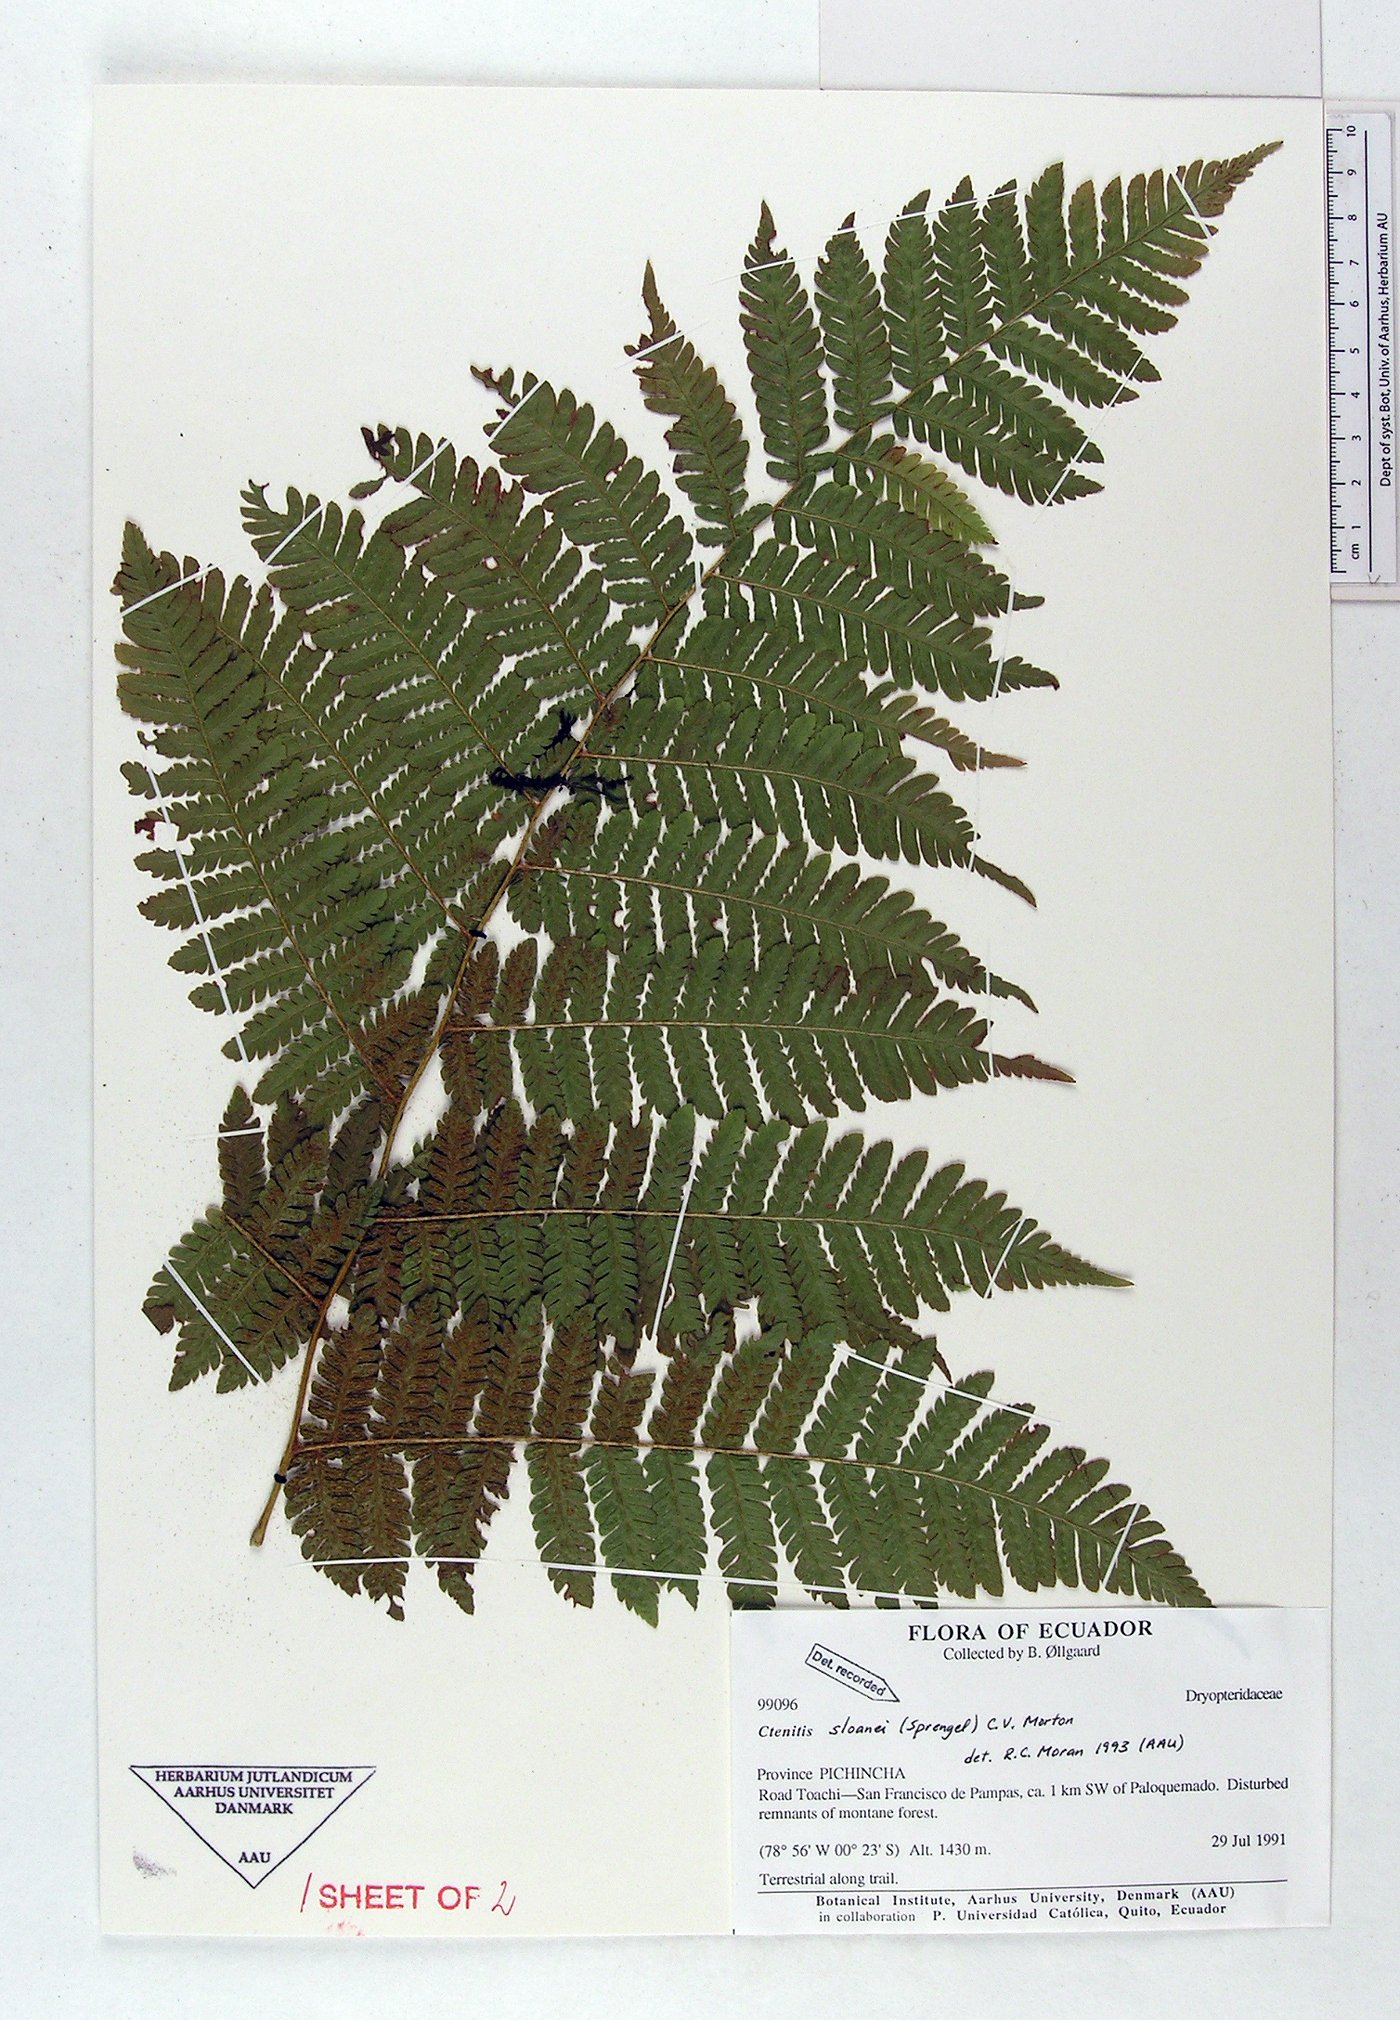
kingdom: Plantae
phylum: Tracheophyta
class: Polypodiopsida
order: Polypodiales
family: Dryopteridaceae
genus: Ctenitis
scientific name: Ctenitis sloanei
